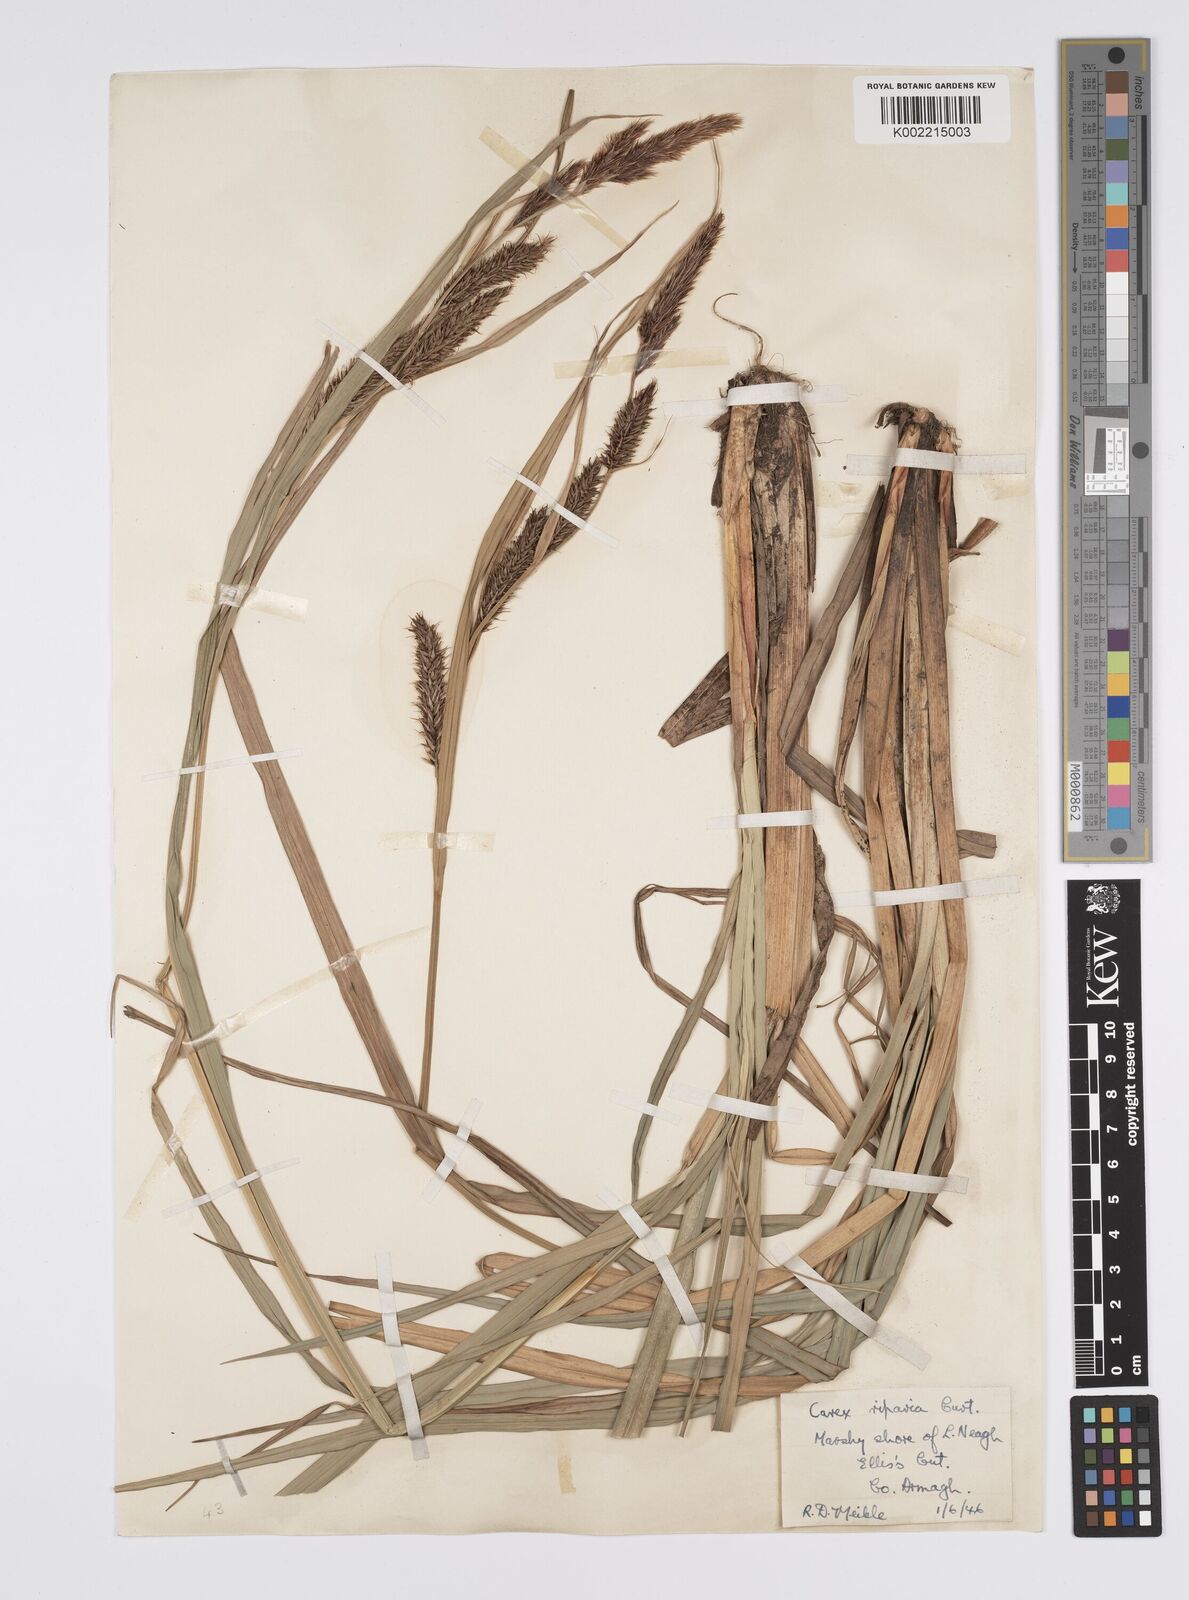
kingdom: Plantae
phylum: Tracheophyta
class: Liliopsida
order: Poales
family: Cyperaceae
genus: Carex
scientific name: Carex riparia
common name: Greater pond-sedge
